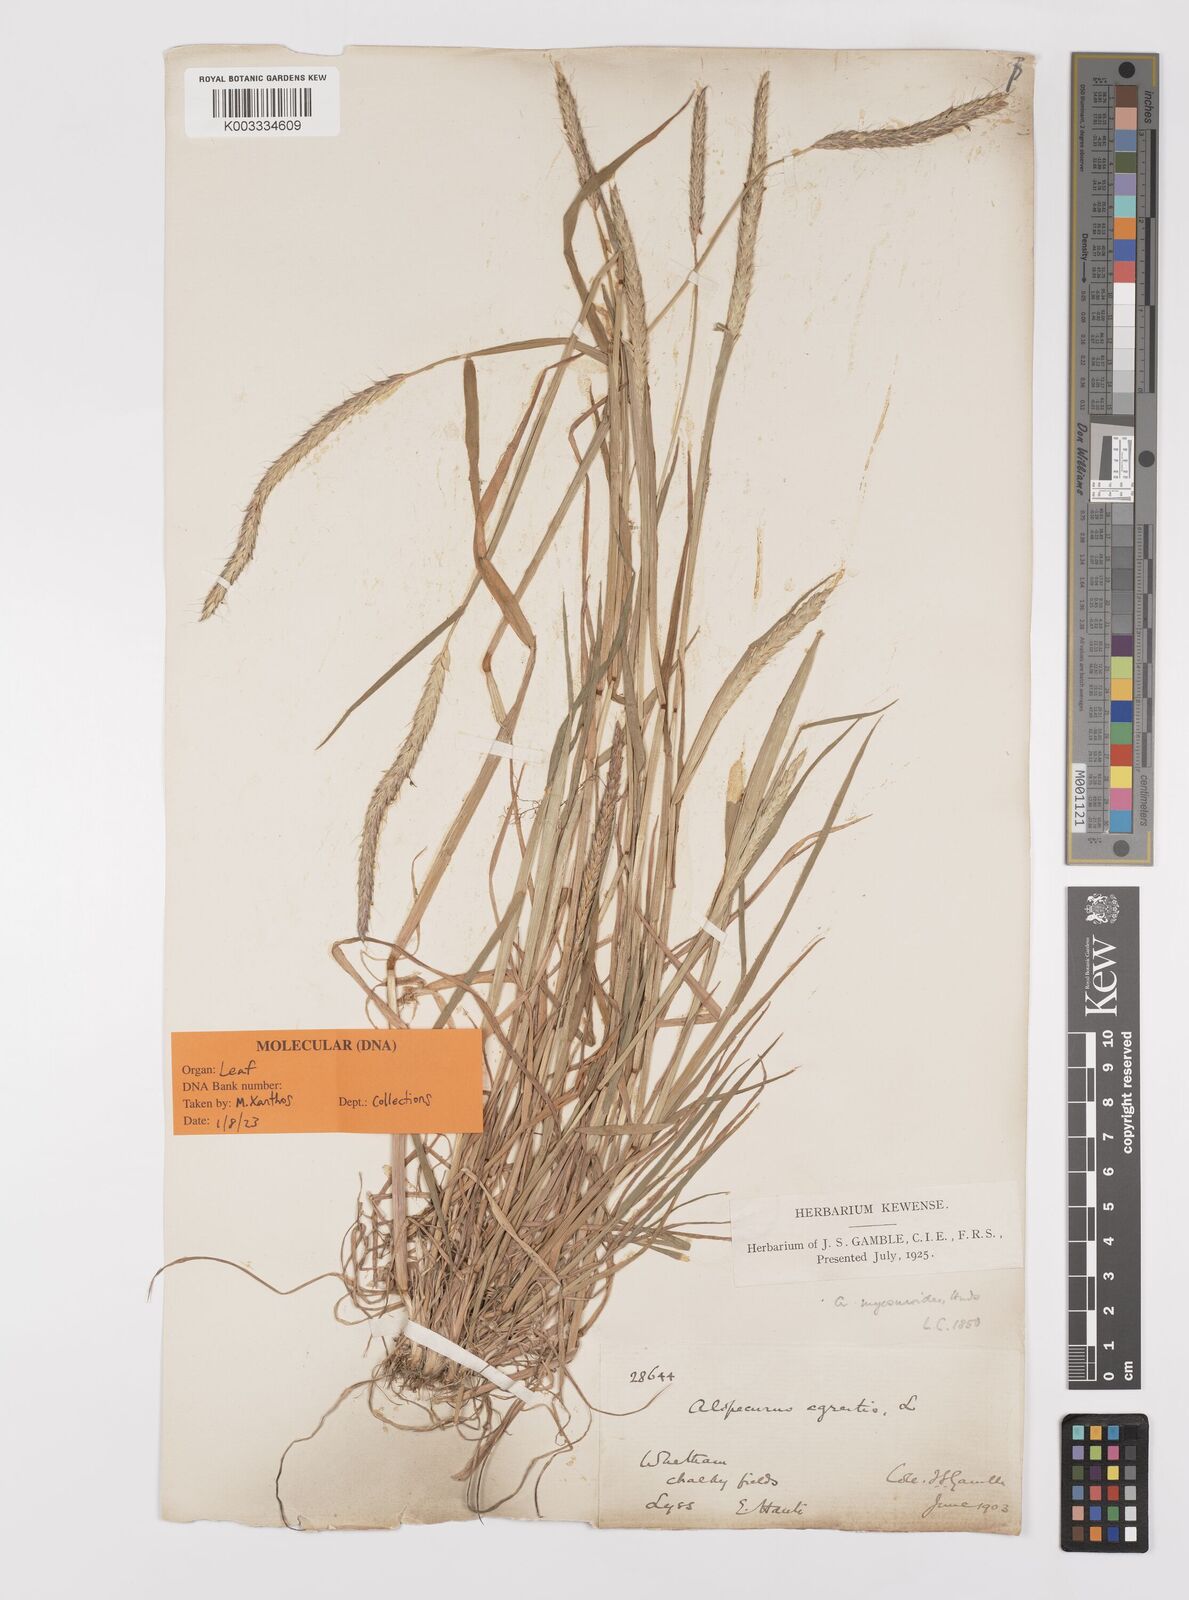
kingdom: Plantae
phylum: Tracheophyta
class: Liliopsida
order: Poales
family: Poaceae
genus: Alopecurus
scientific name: Alopecurus myosuroides
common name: Black-grass
